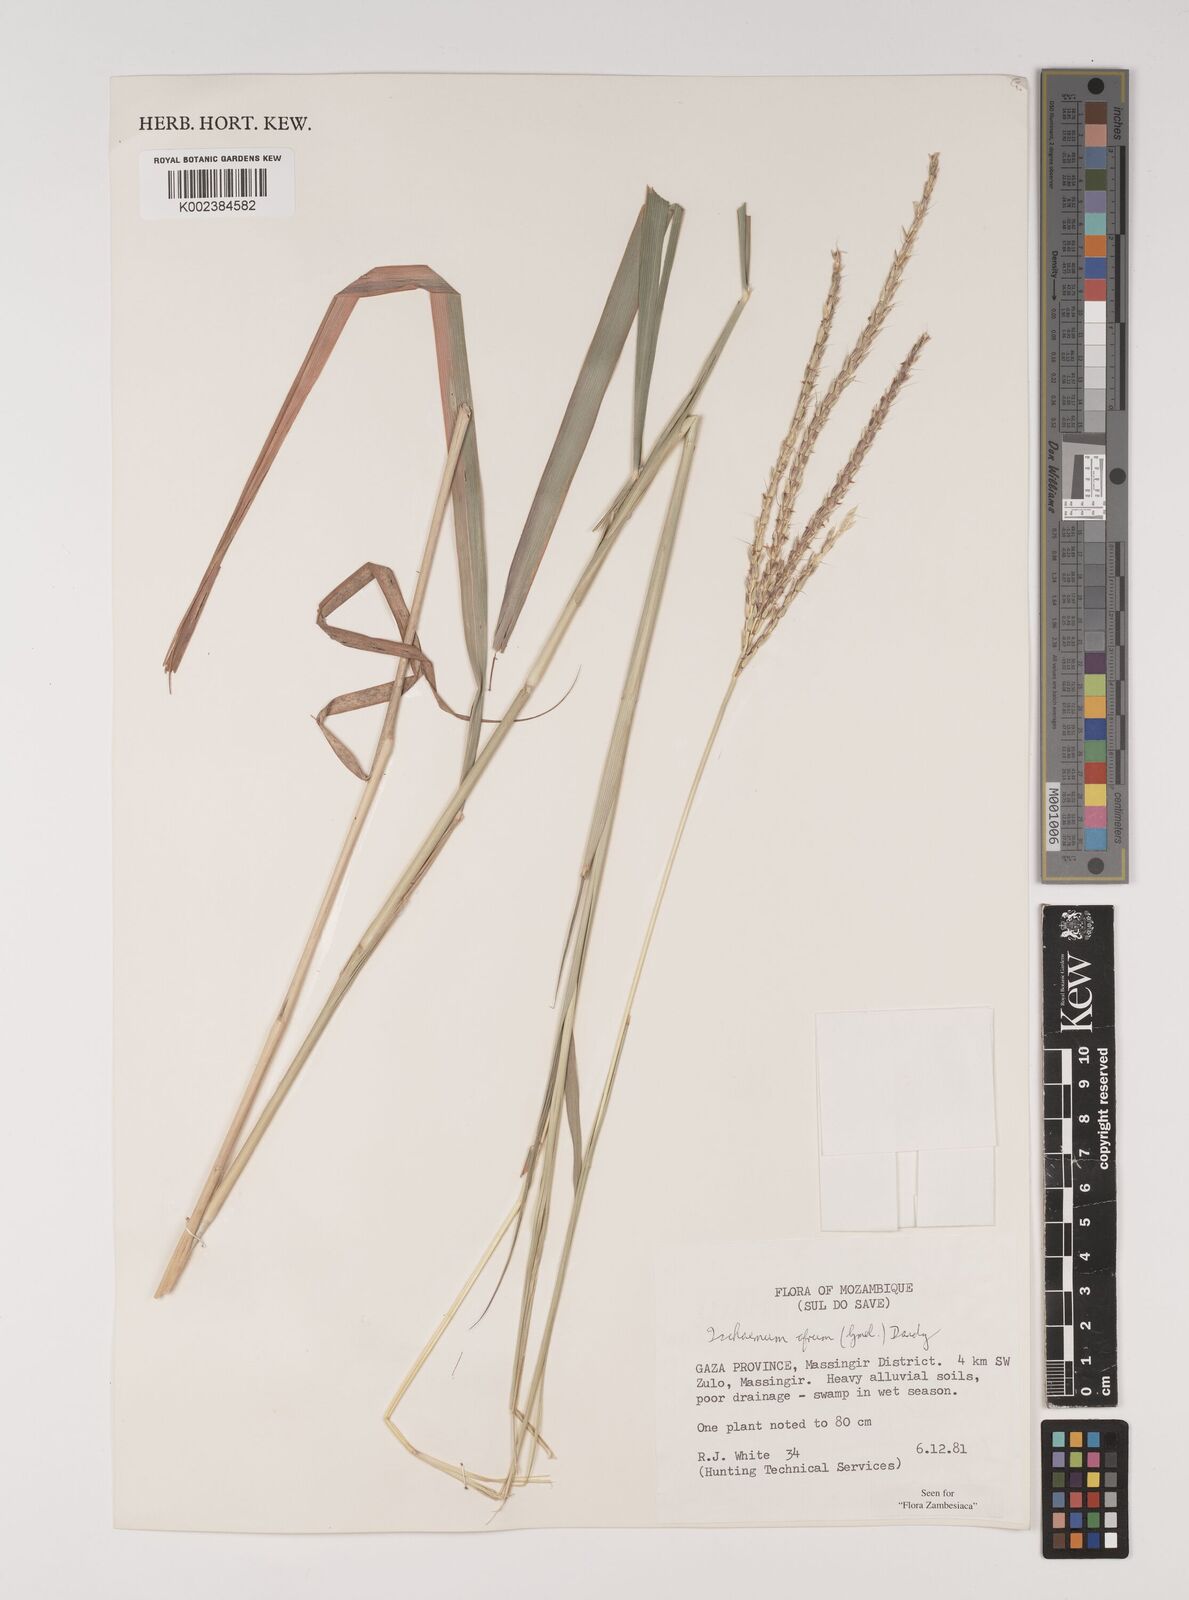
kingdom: Plantae
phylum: Tracheophyta
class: Liliopsida
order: Poales
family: Poaceae
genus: Ischaemum
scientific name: Ischaemum afrum
